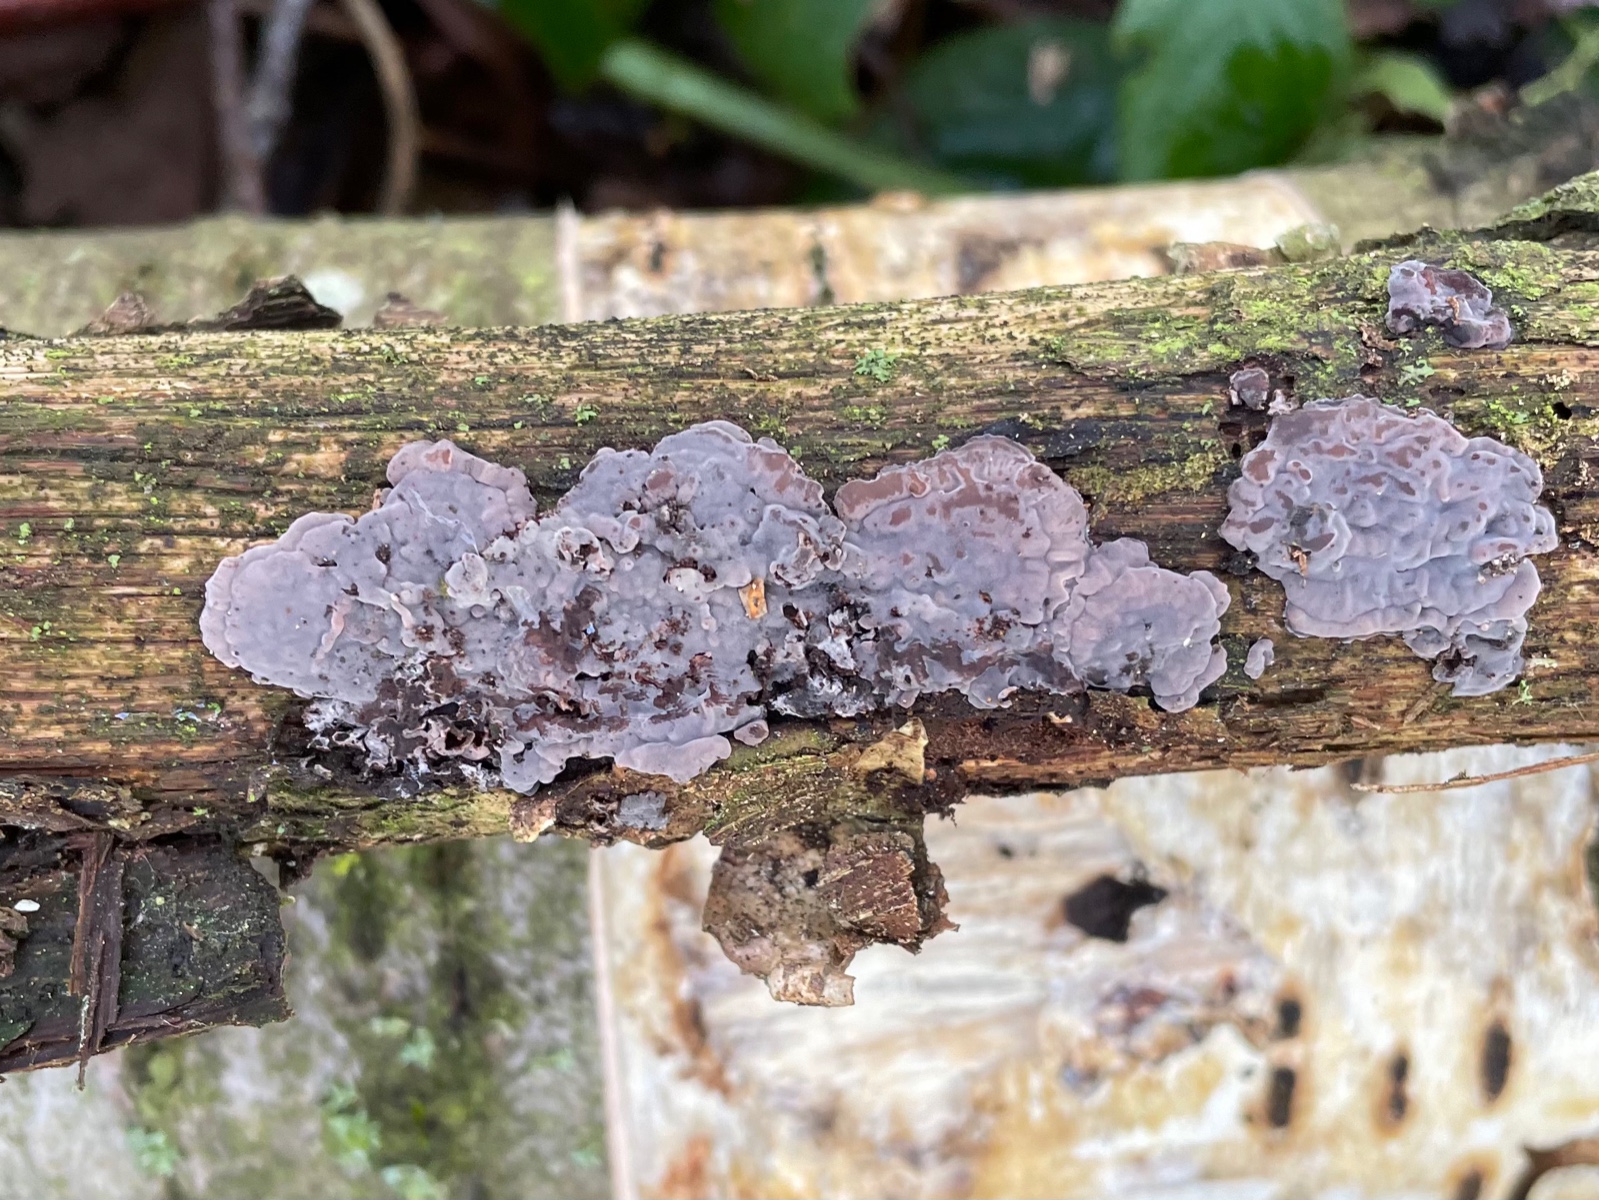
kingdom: Fungi
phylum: Basidiomycota
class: Agaricomycetes
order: Russulales
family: Peniophoraceae
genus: Peniophora
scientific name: Peniophora quercina
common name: ege-voksskind
